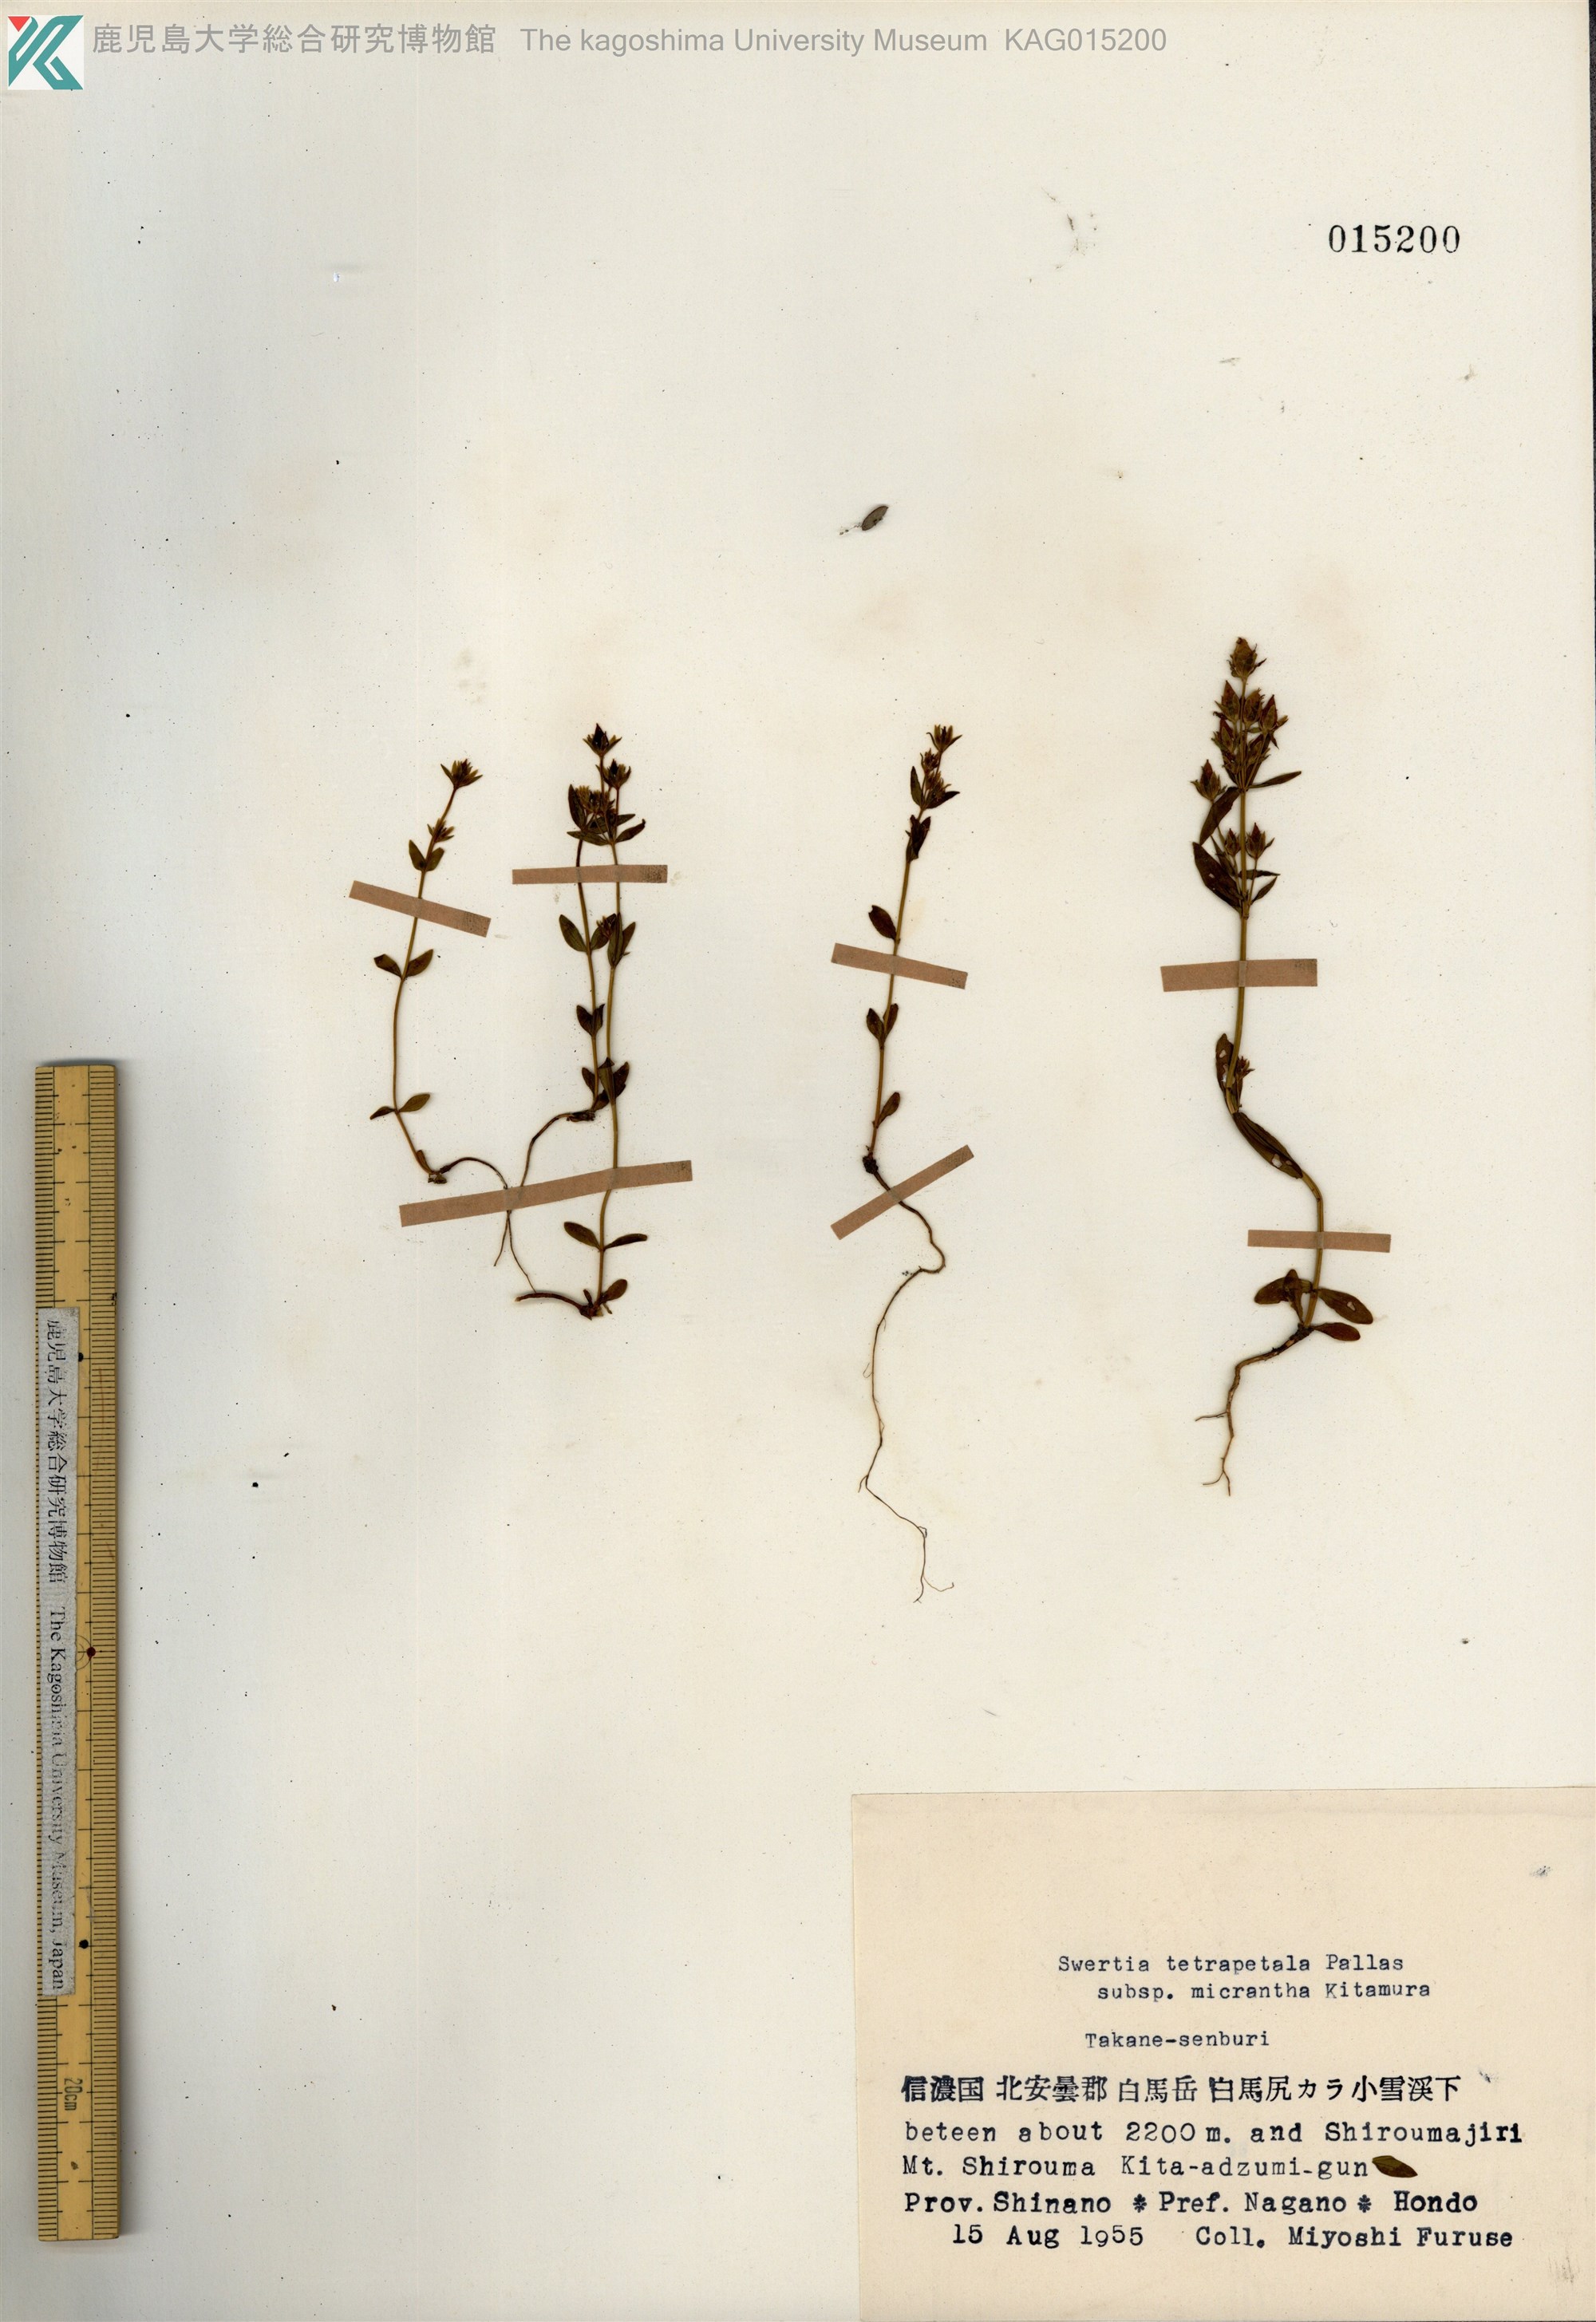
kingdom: Plantae
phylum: Tracheophyta
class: Magnoliopsida
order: Gentianales
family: Gentianaceae
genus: Swertia
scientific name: Swertia tetrapetala
